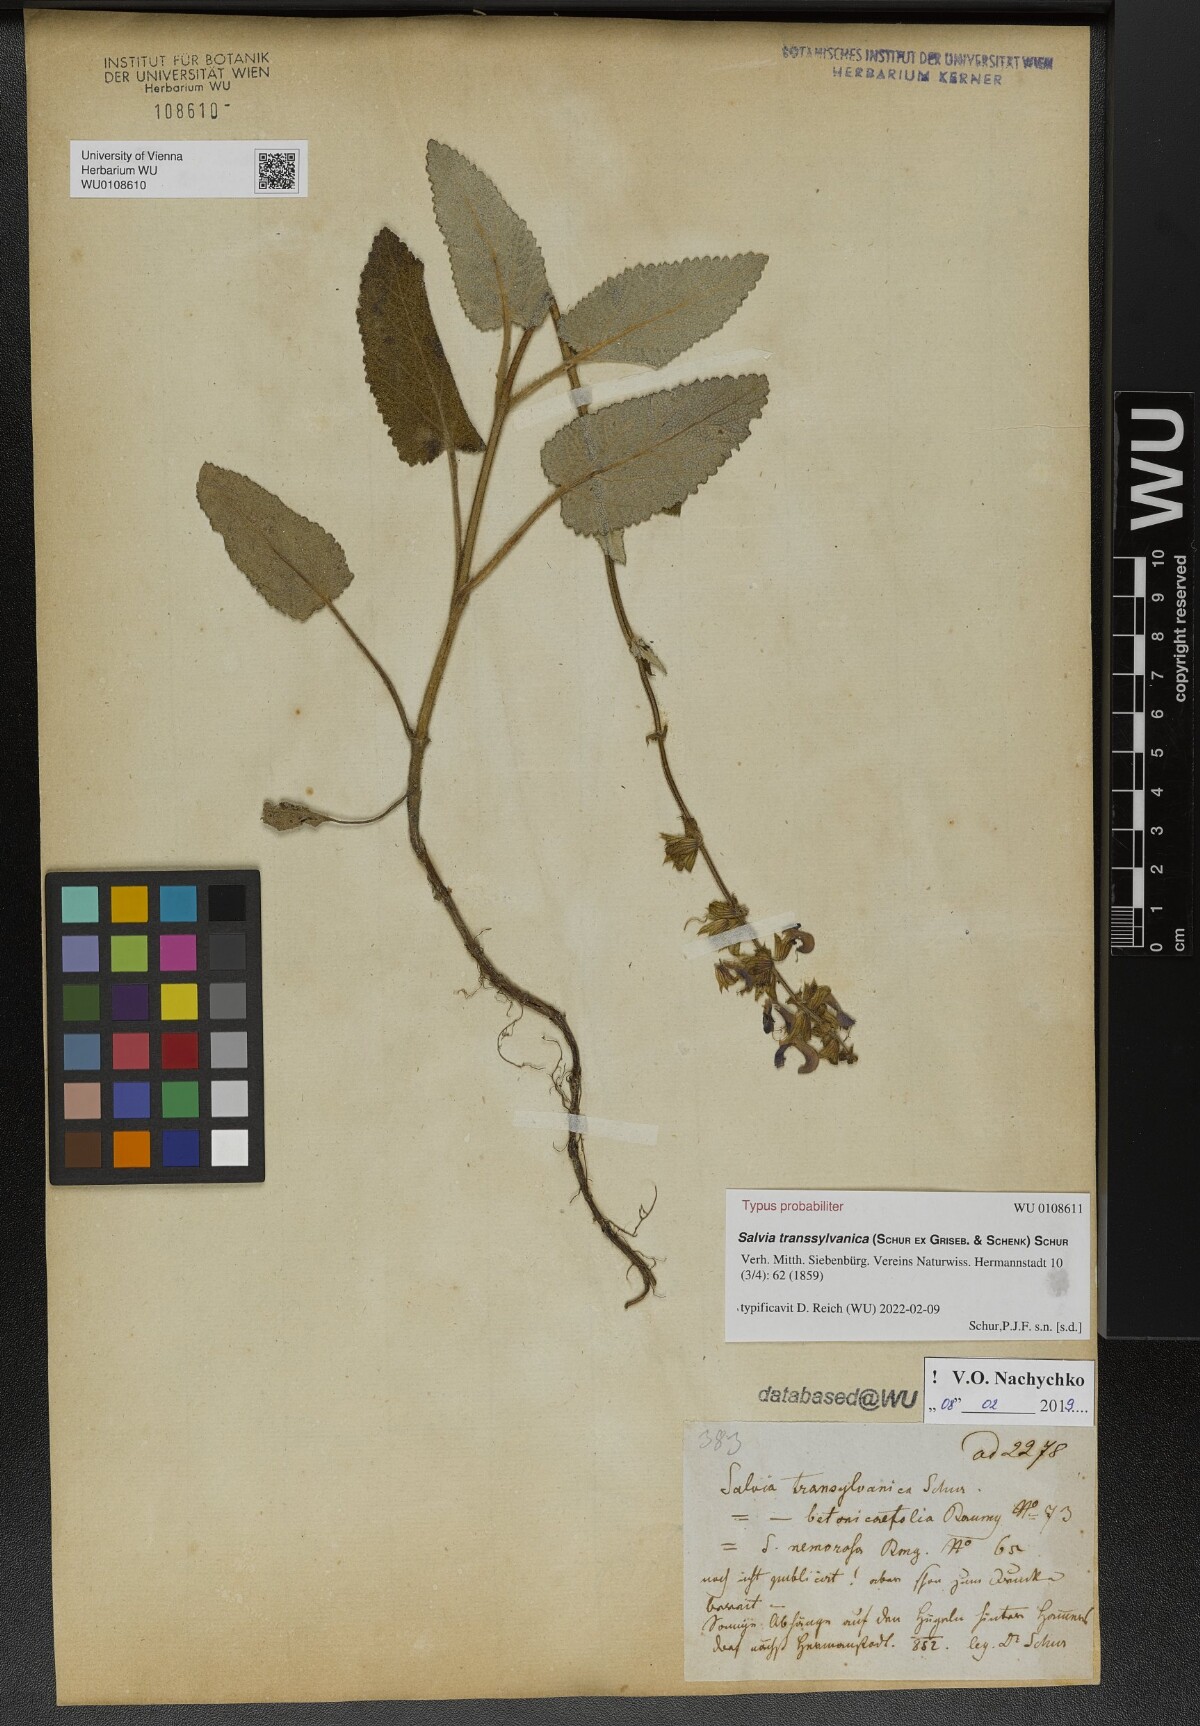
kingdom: Plantae
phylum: Tracheophyta
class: Magnoliopsida
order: Lamiales
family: Lamiaceae
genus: Salvia
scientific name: Salvia transsylvanica
